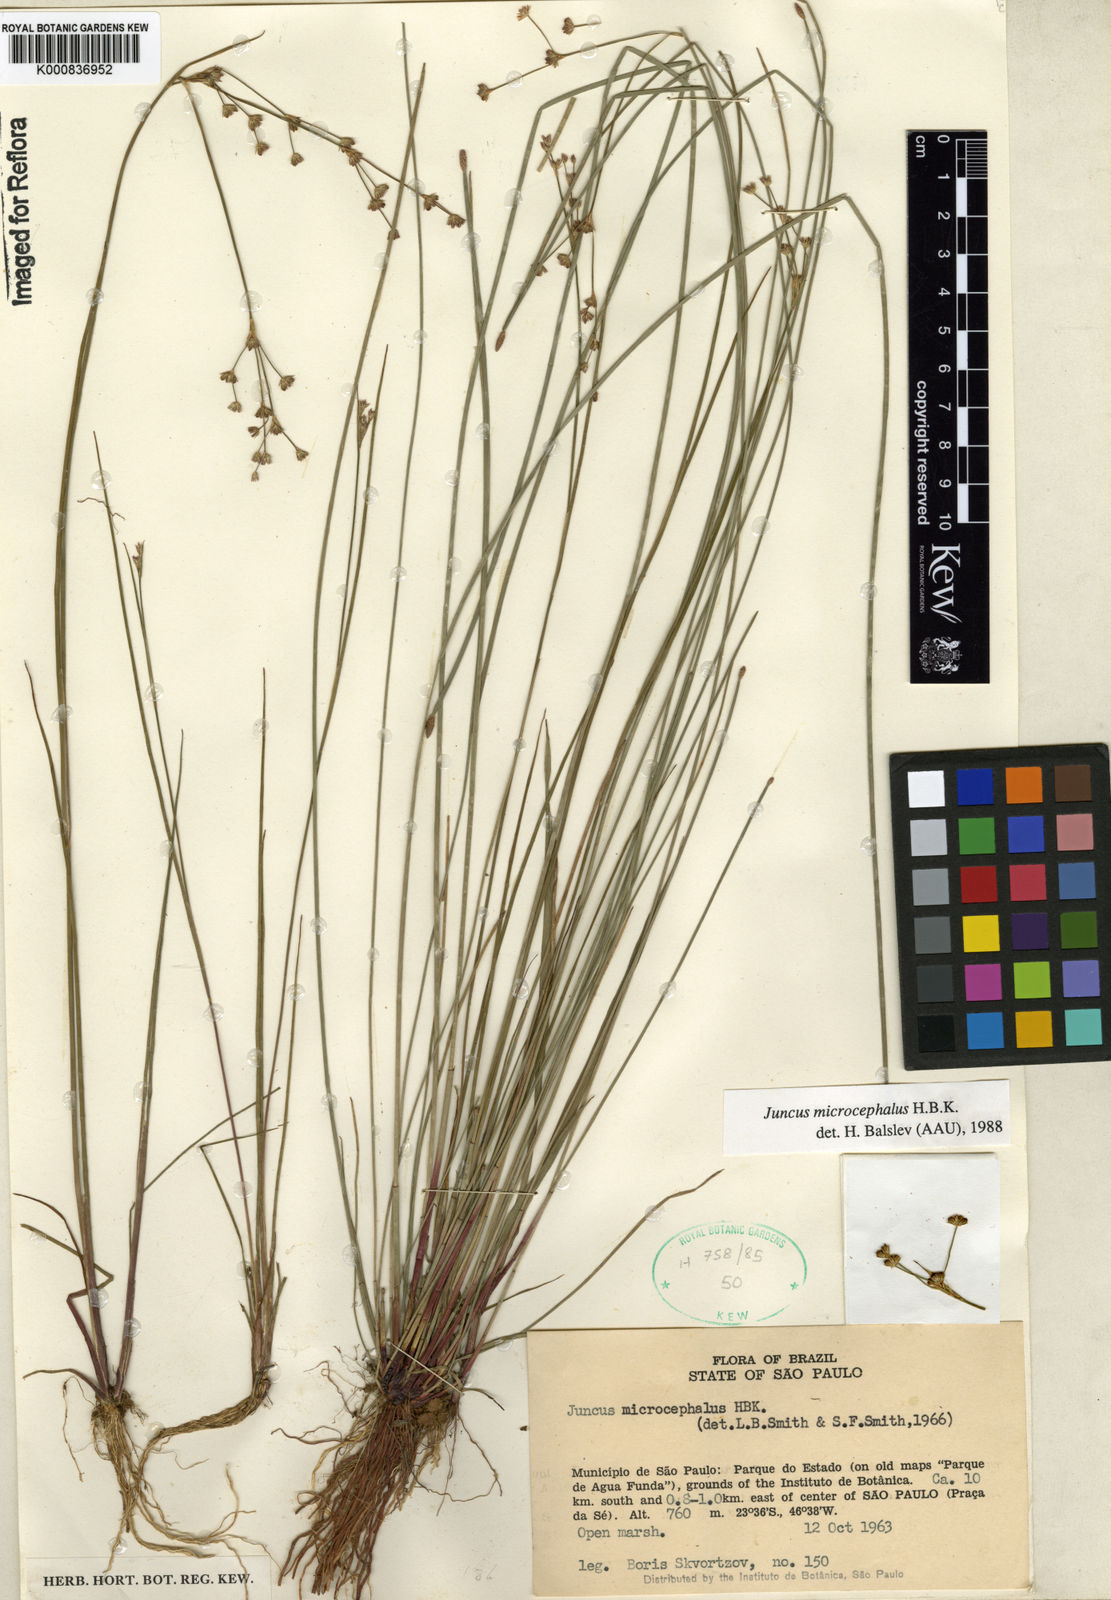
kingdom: Plantae
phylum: Tracheophyta
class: Liliopsida
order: Poales
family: Juncaceae
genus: Juncus
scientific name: Juncus microcephalus
